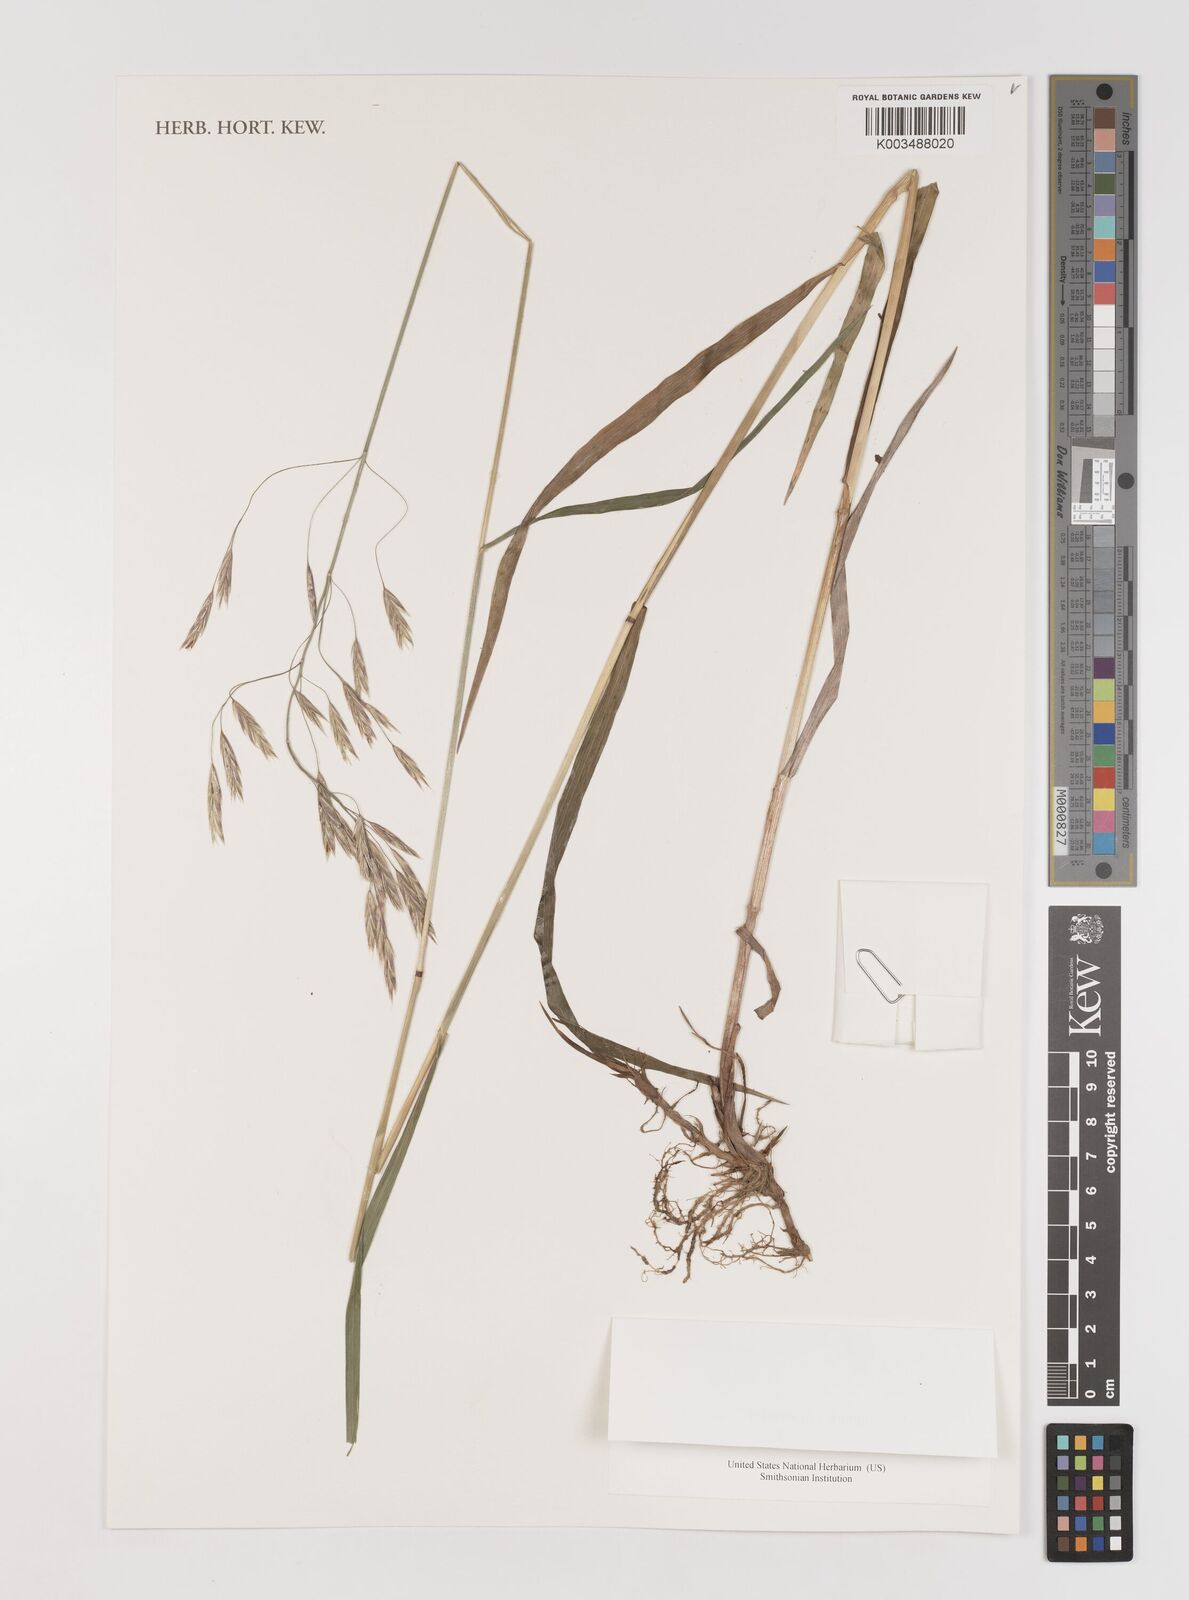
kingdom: Plantae
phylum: Tracheophyta
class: Liliopsida
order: Poales
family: Poaceae
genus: Bromus
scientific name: Bromus inermis
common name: Smooth brome
